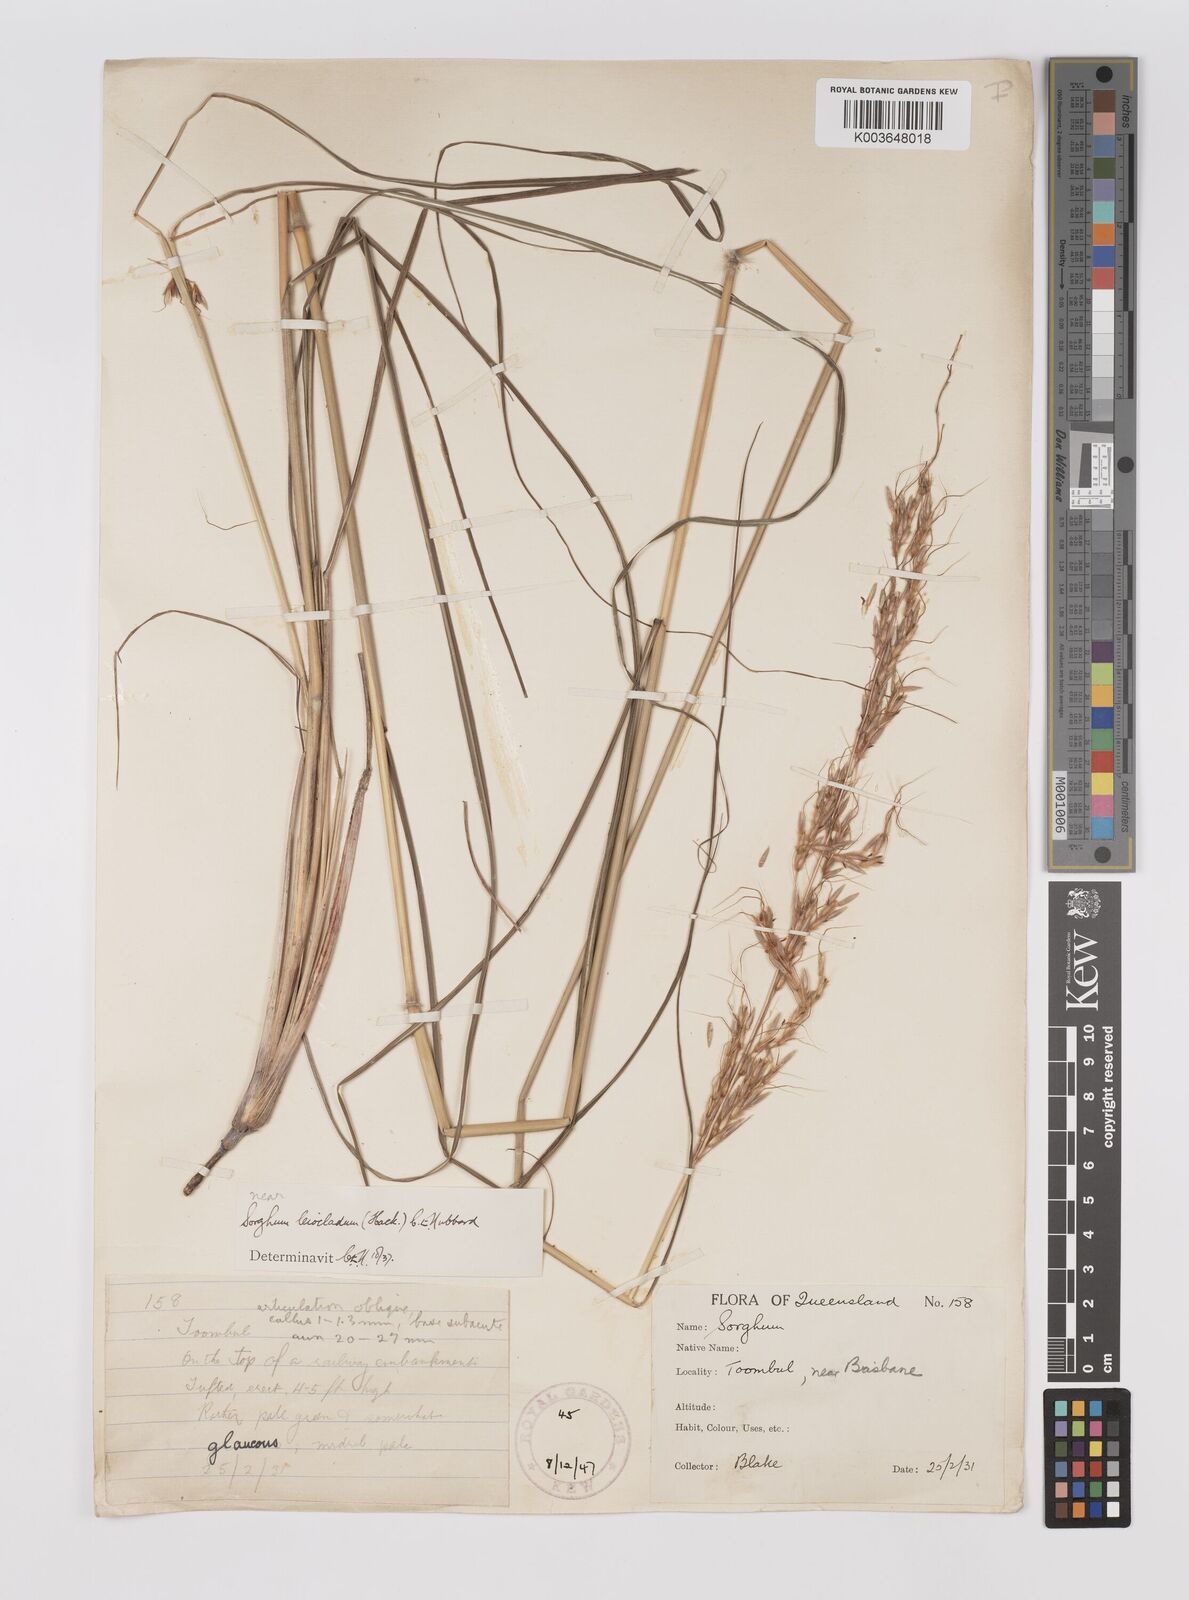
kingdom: Plantae
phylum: Tracheophyta
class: Liliopsida
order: Poales
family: Poaceae
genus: Sarga
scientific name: Sarga leioclada
